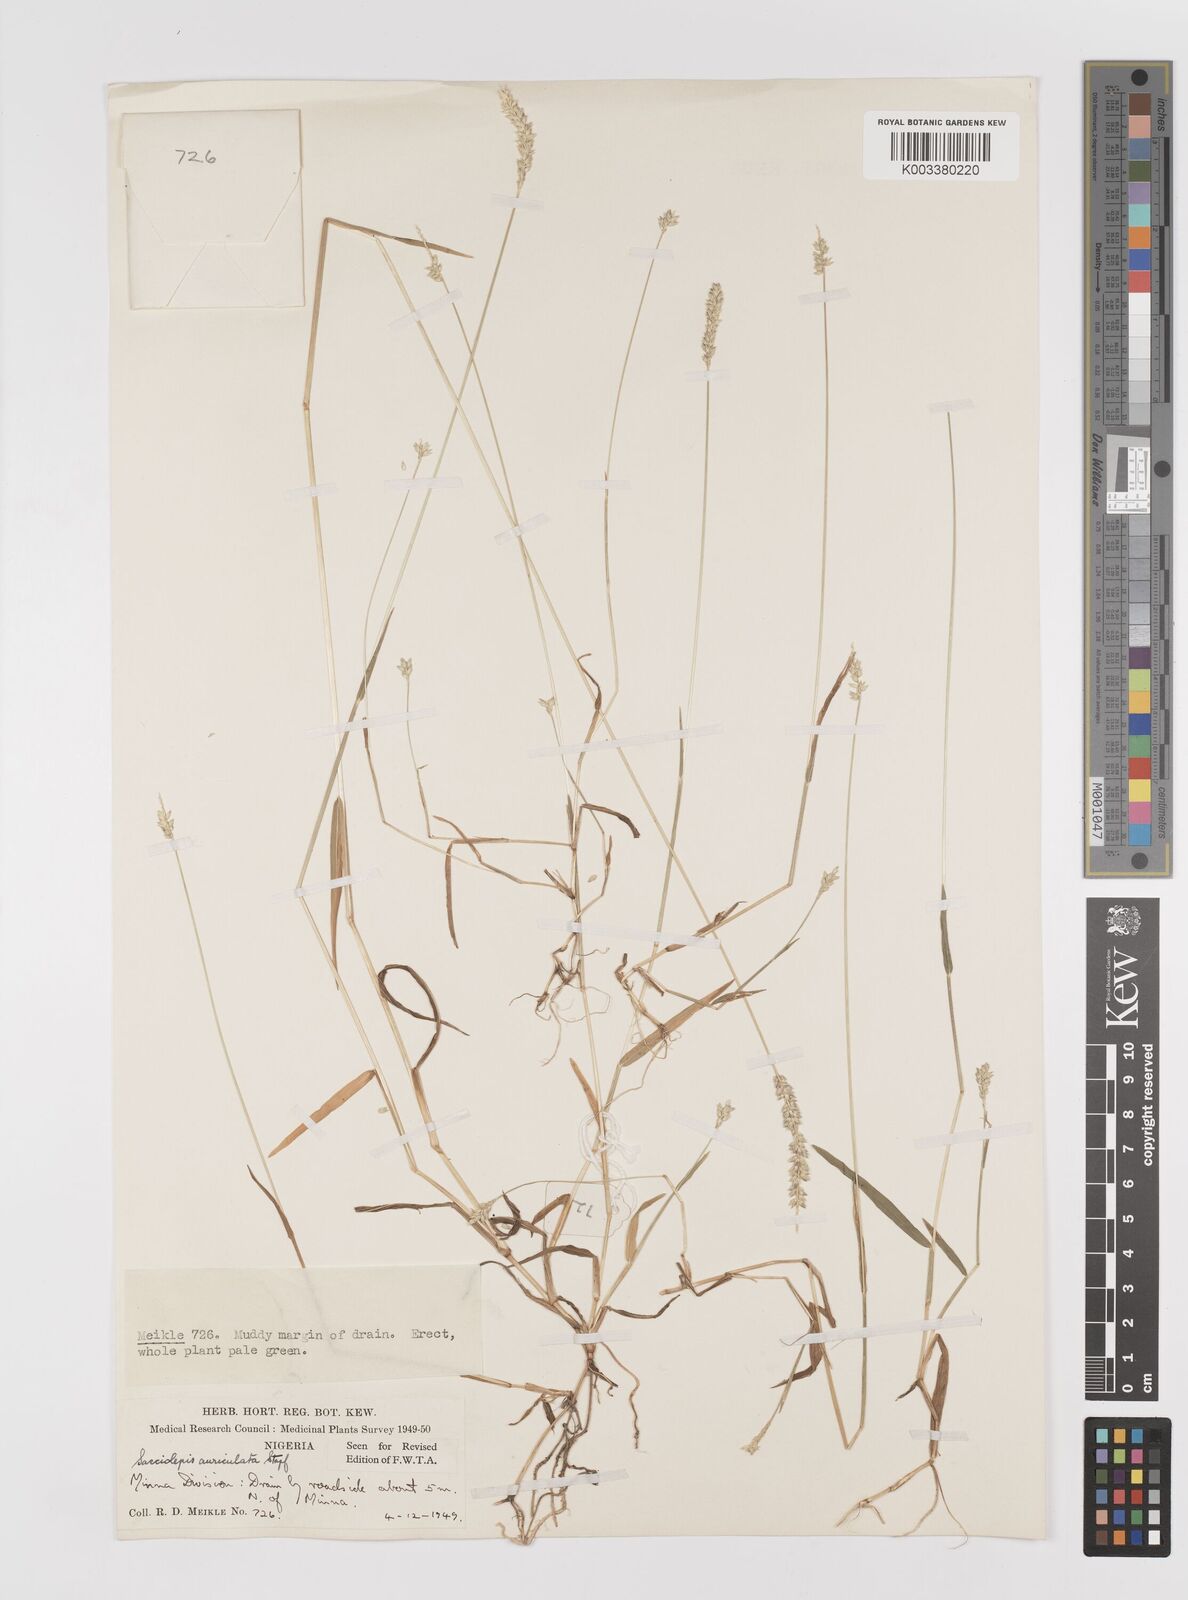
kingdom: Plantae
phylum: Tracheophyta
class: Liliopsida
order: Poales
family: Poaceae
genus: Sacciolepis
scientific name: Sacciolepis indica
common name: Glenwoodgrass
